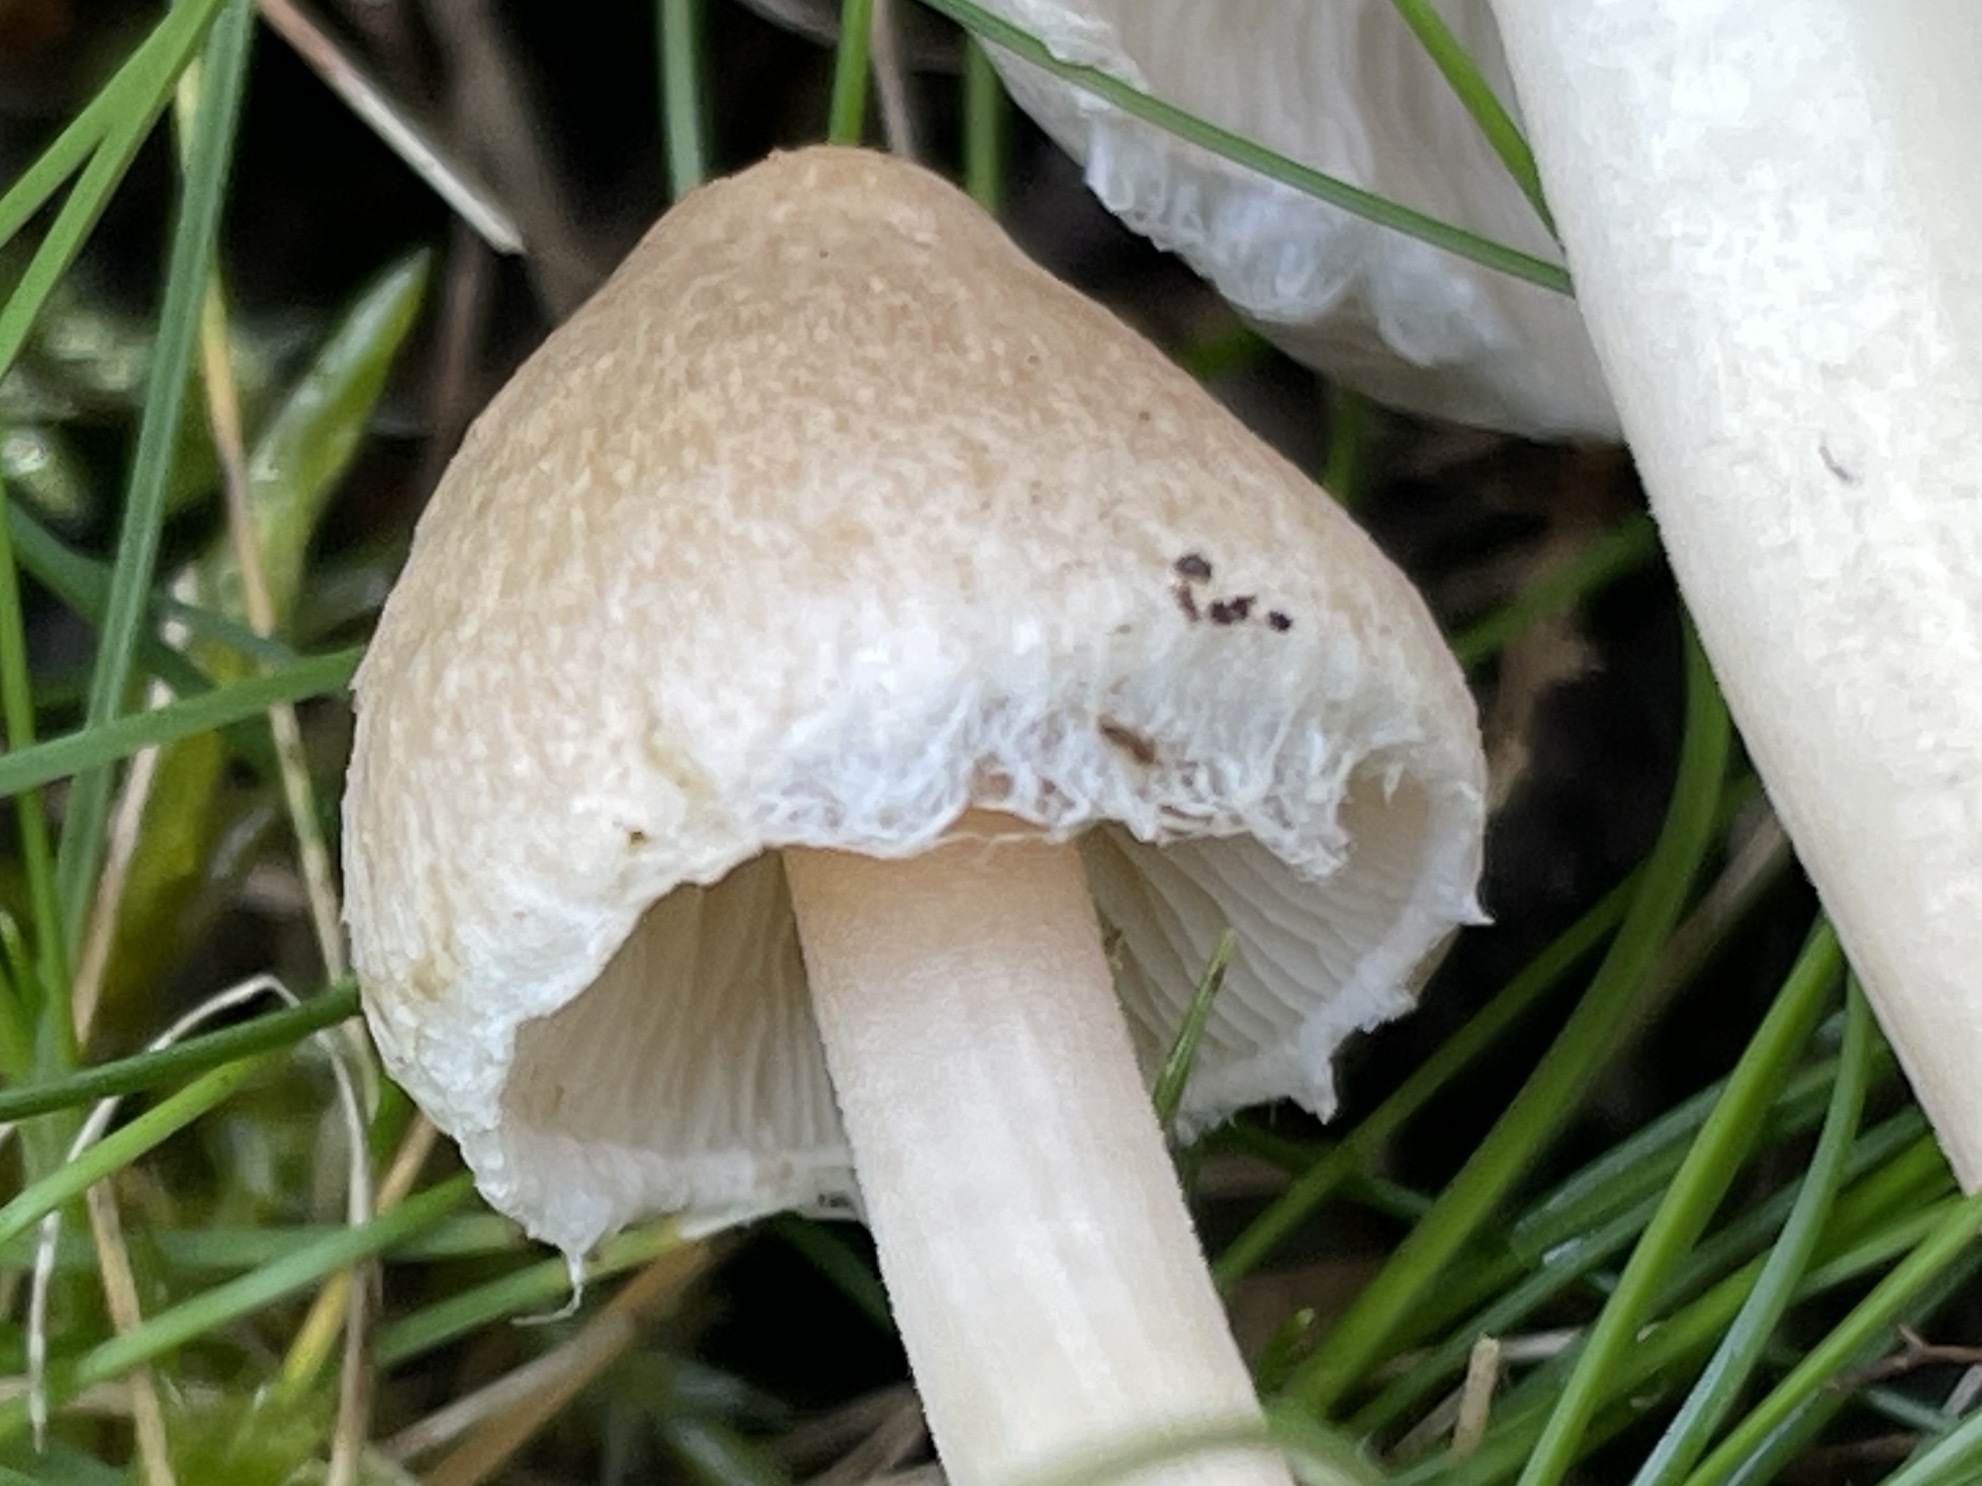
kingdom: Fungi
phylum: Basidiomycota
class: Agaricomycetes
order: Agaricales
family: Inocybaceae
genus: Inocybe
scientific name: Inocybe sindonia
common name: bleg trævlhat
